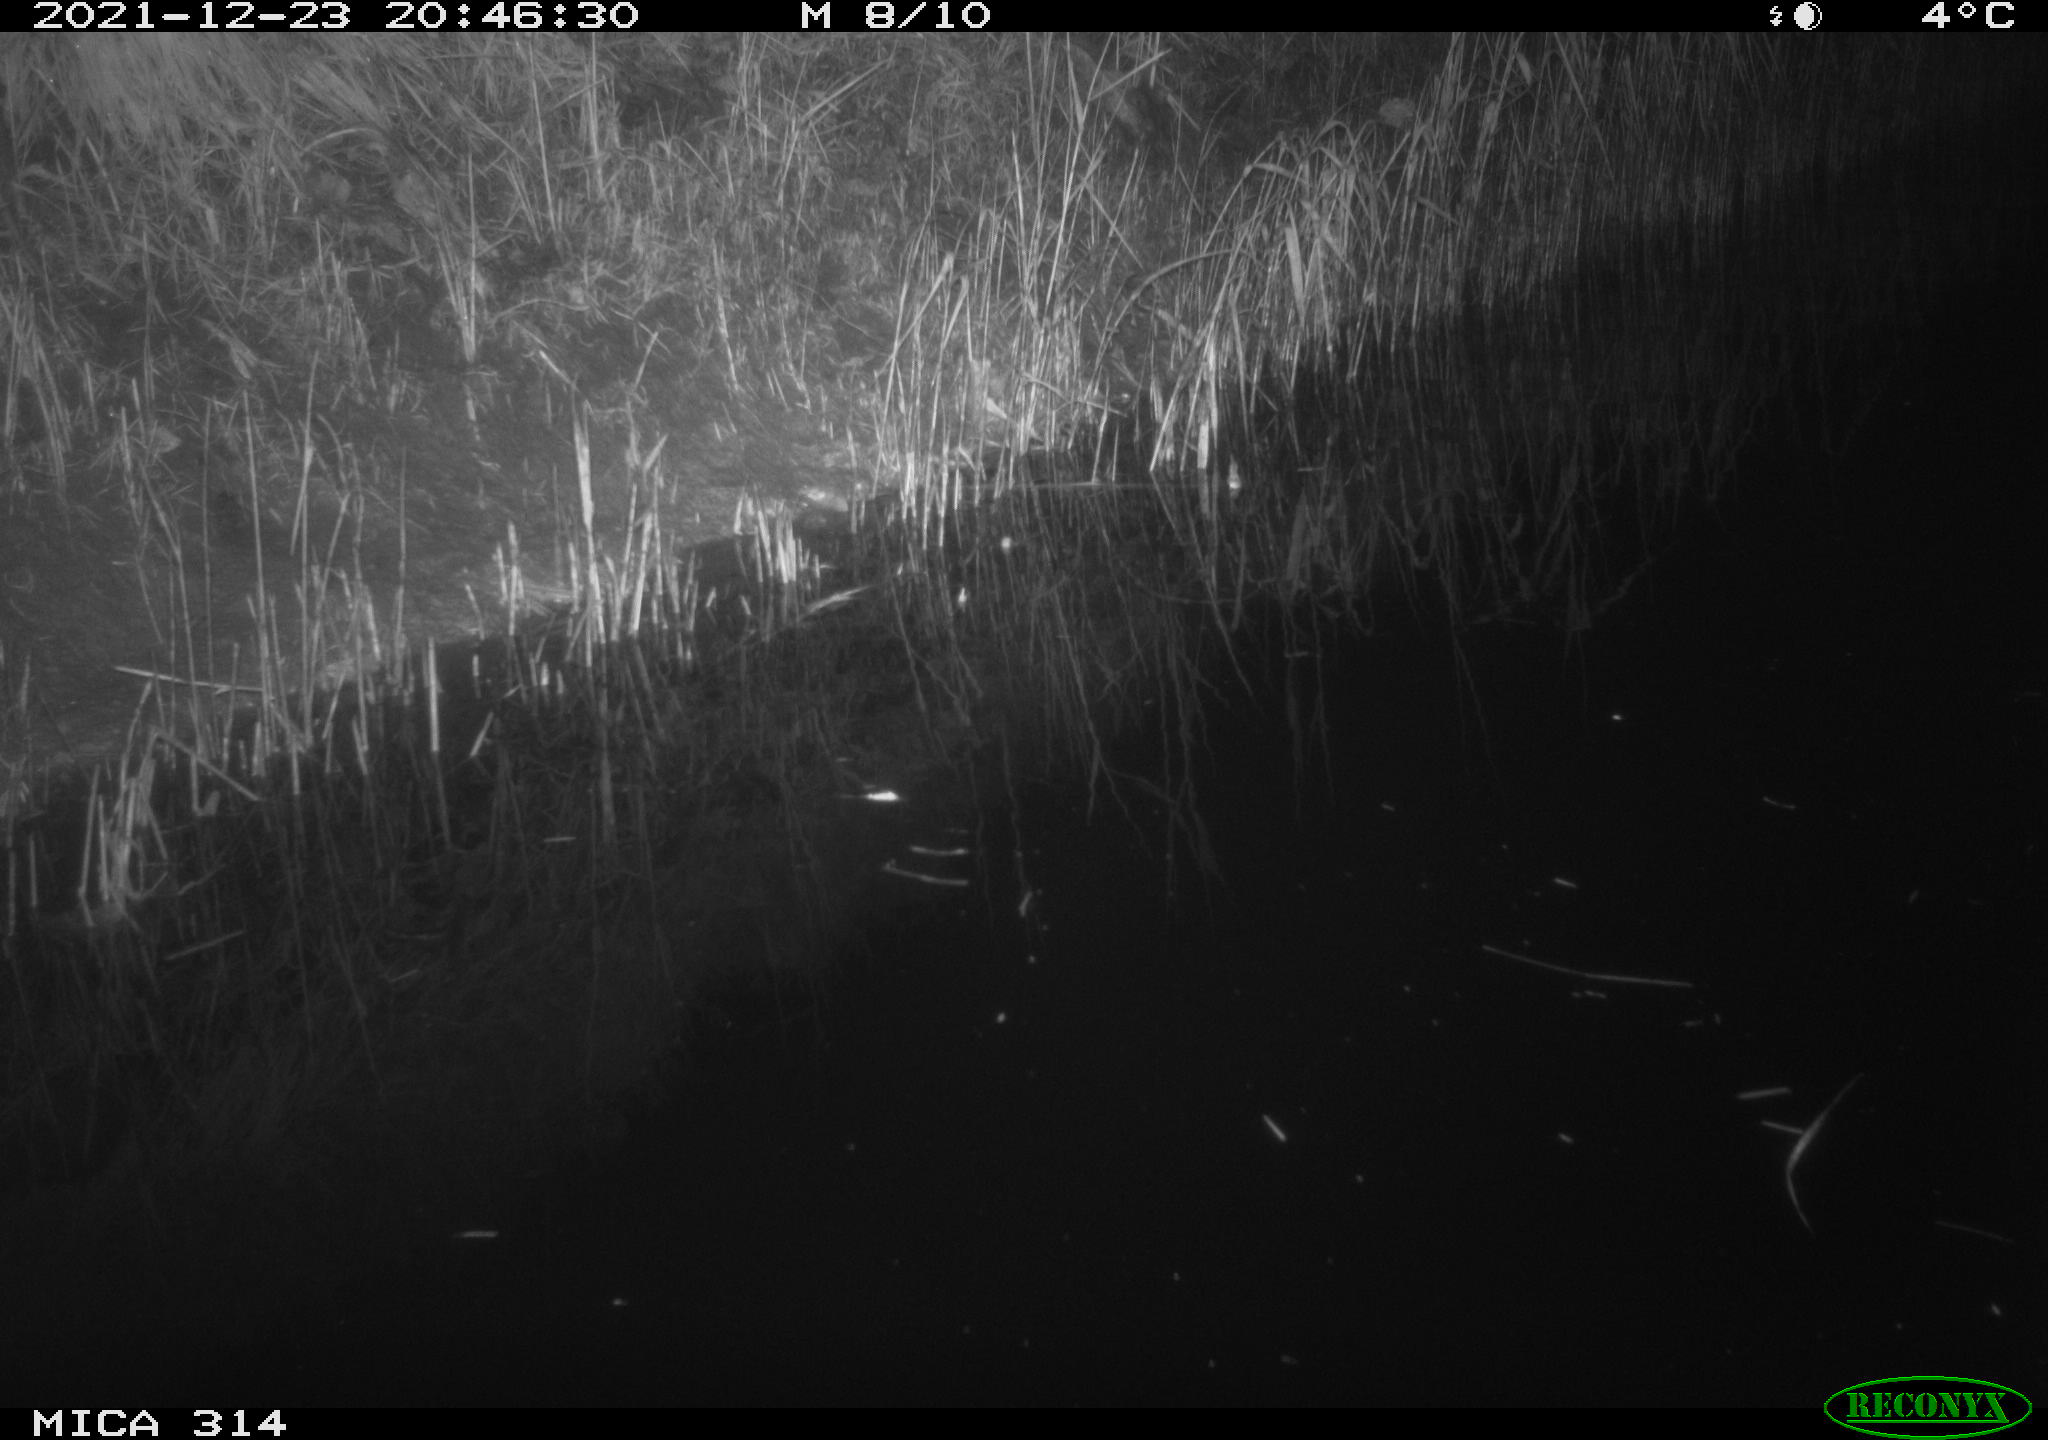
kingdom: Animalia
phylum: Chordata
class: Mammalia
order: Rodentia
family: Muridae
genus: Rattus
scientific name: Rattus norvegicus
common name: Brown rat
